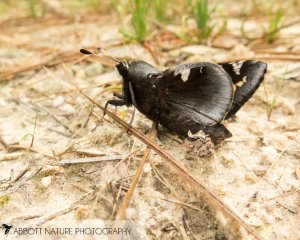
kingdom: Animalia
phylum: Arthropoda
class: Insecta
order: Lepidoptera
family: Hesperiidae
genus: Megathymus
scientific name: Megathymus yuccae
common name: Yucca Giant-Skipper
